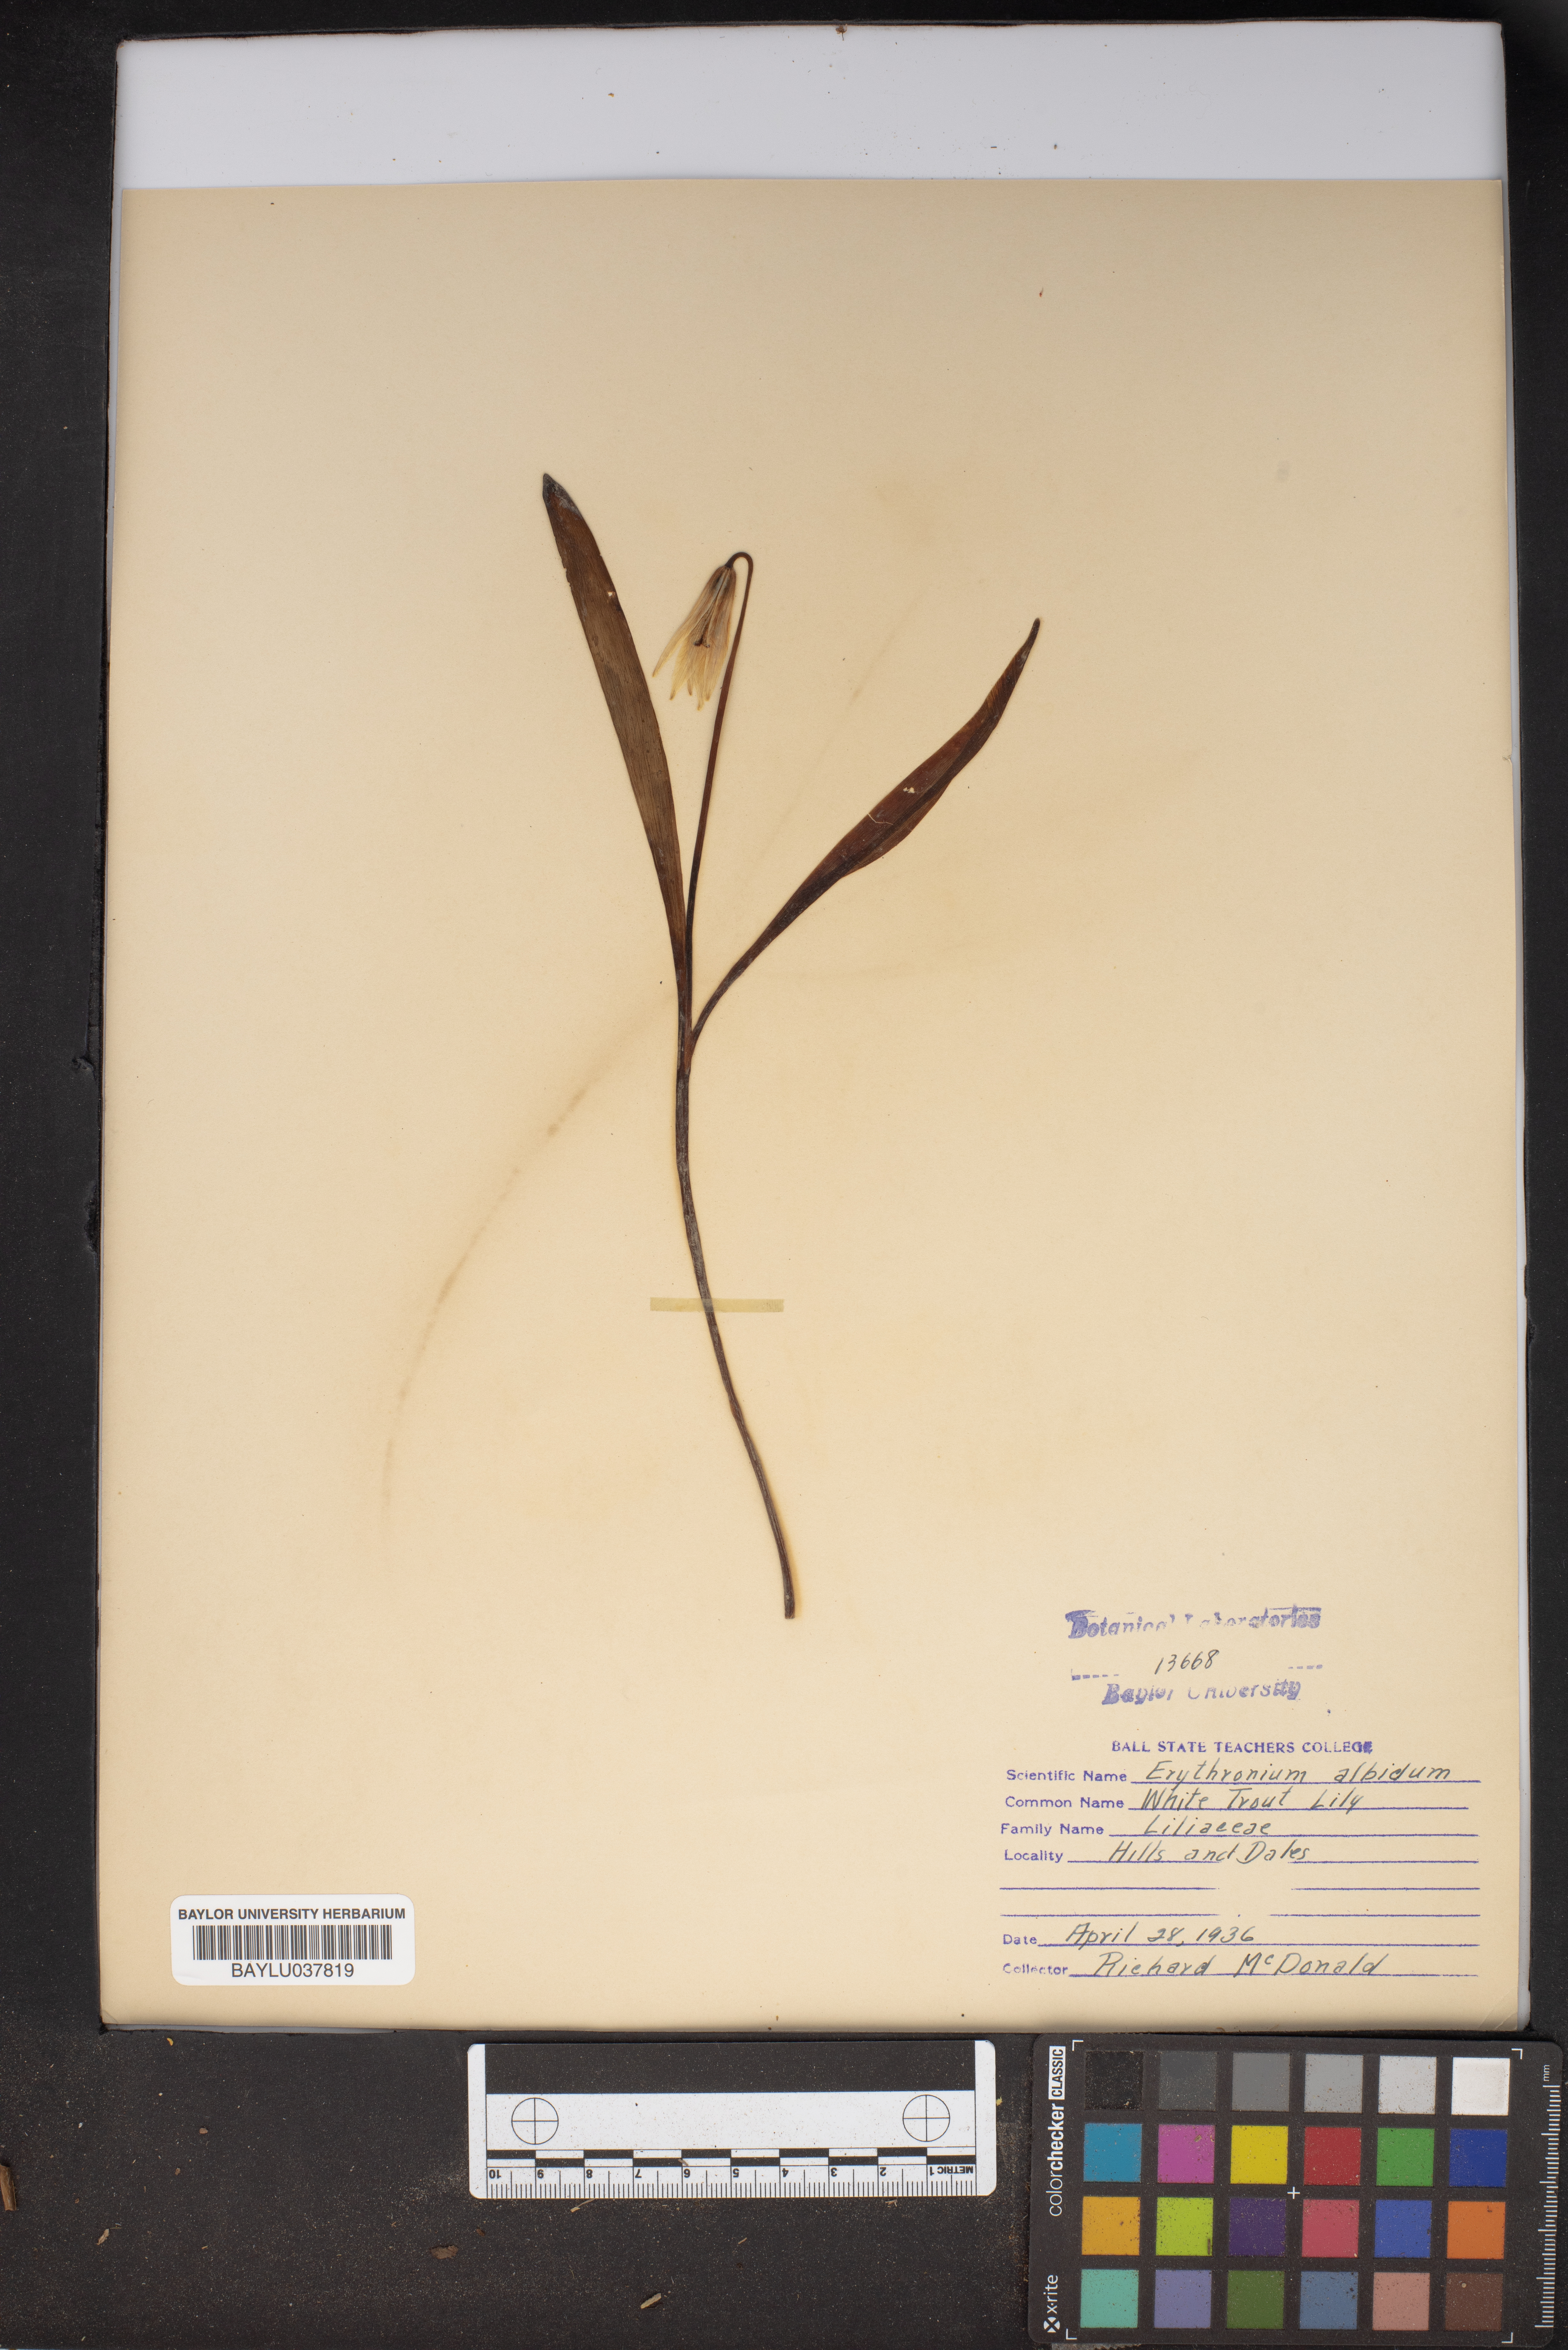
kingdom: Plantae
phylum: Tracheophyta
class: Liliopsida
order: Liliales
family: Liliaceae
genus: Erythronium
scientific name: Erythronium albidum
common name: White trout-lily
